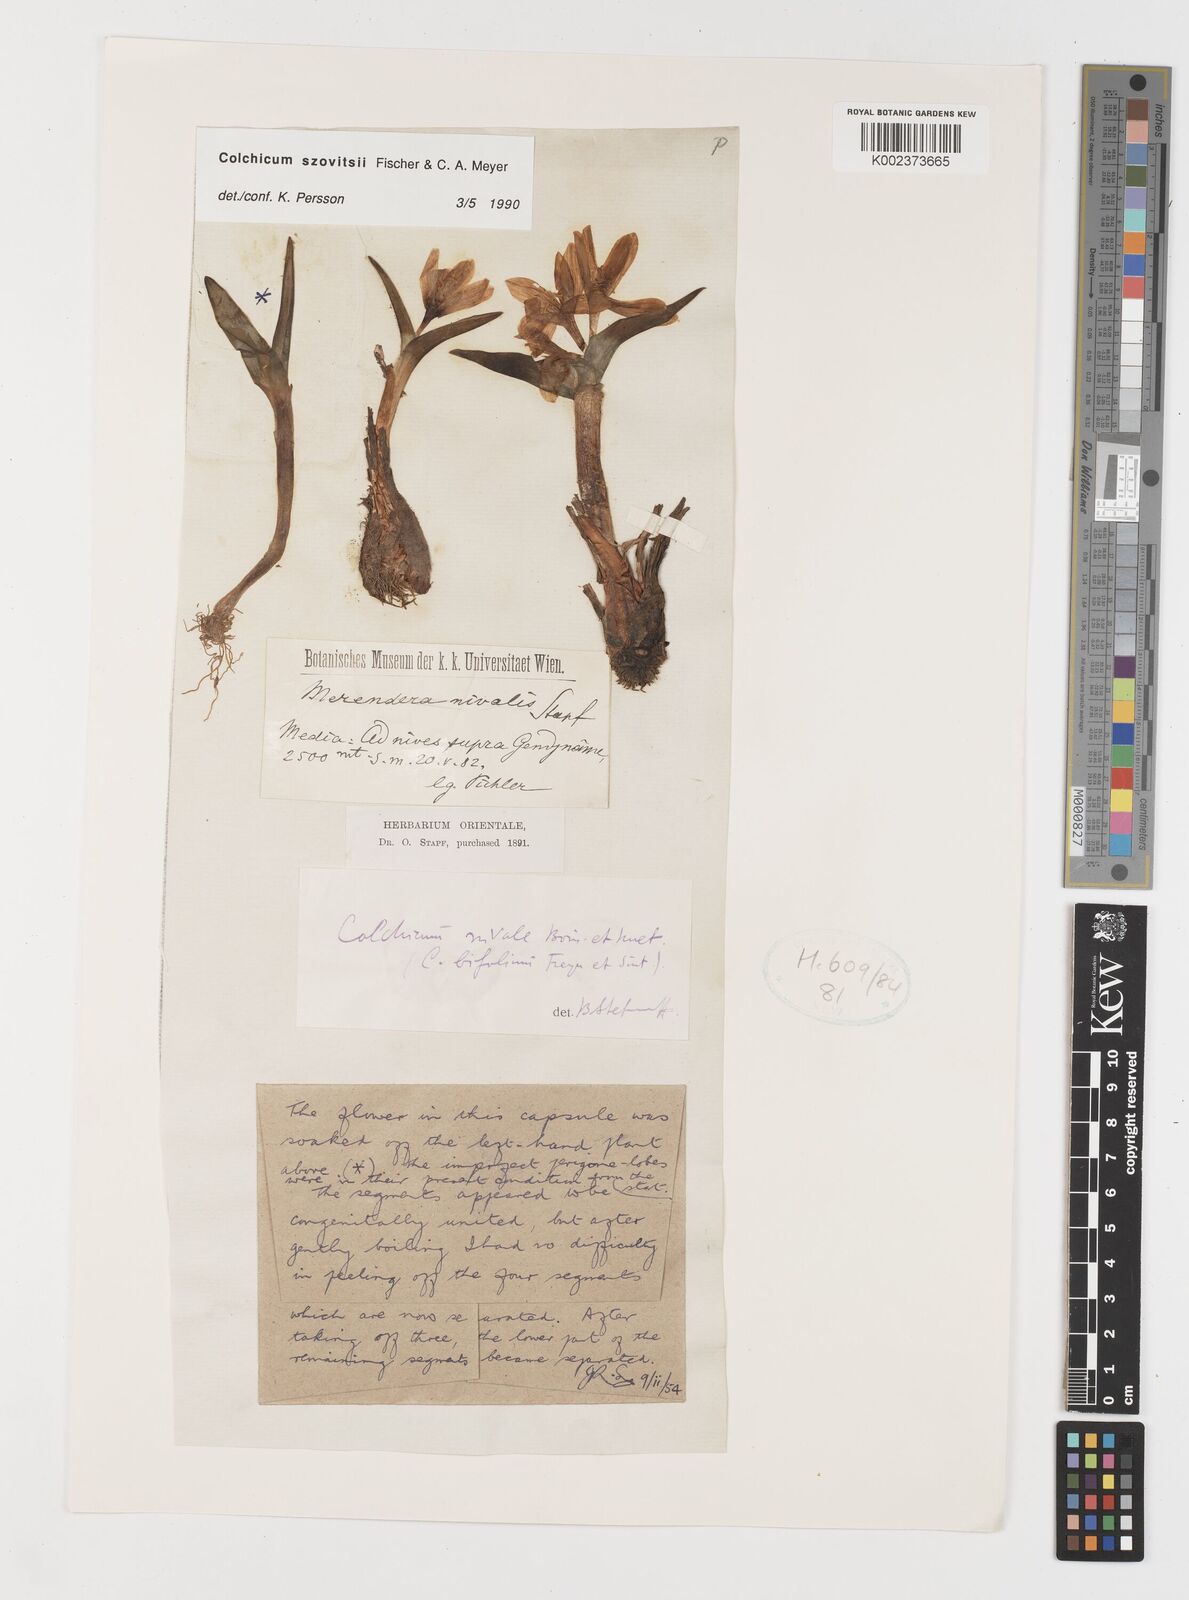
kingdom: Plantae
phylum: Tracheophyta
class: Liliopsida
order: Liliales
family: Colchicaceae
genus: Colchicum
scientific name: Colchicum szovitsii
